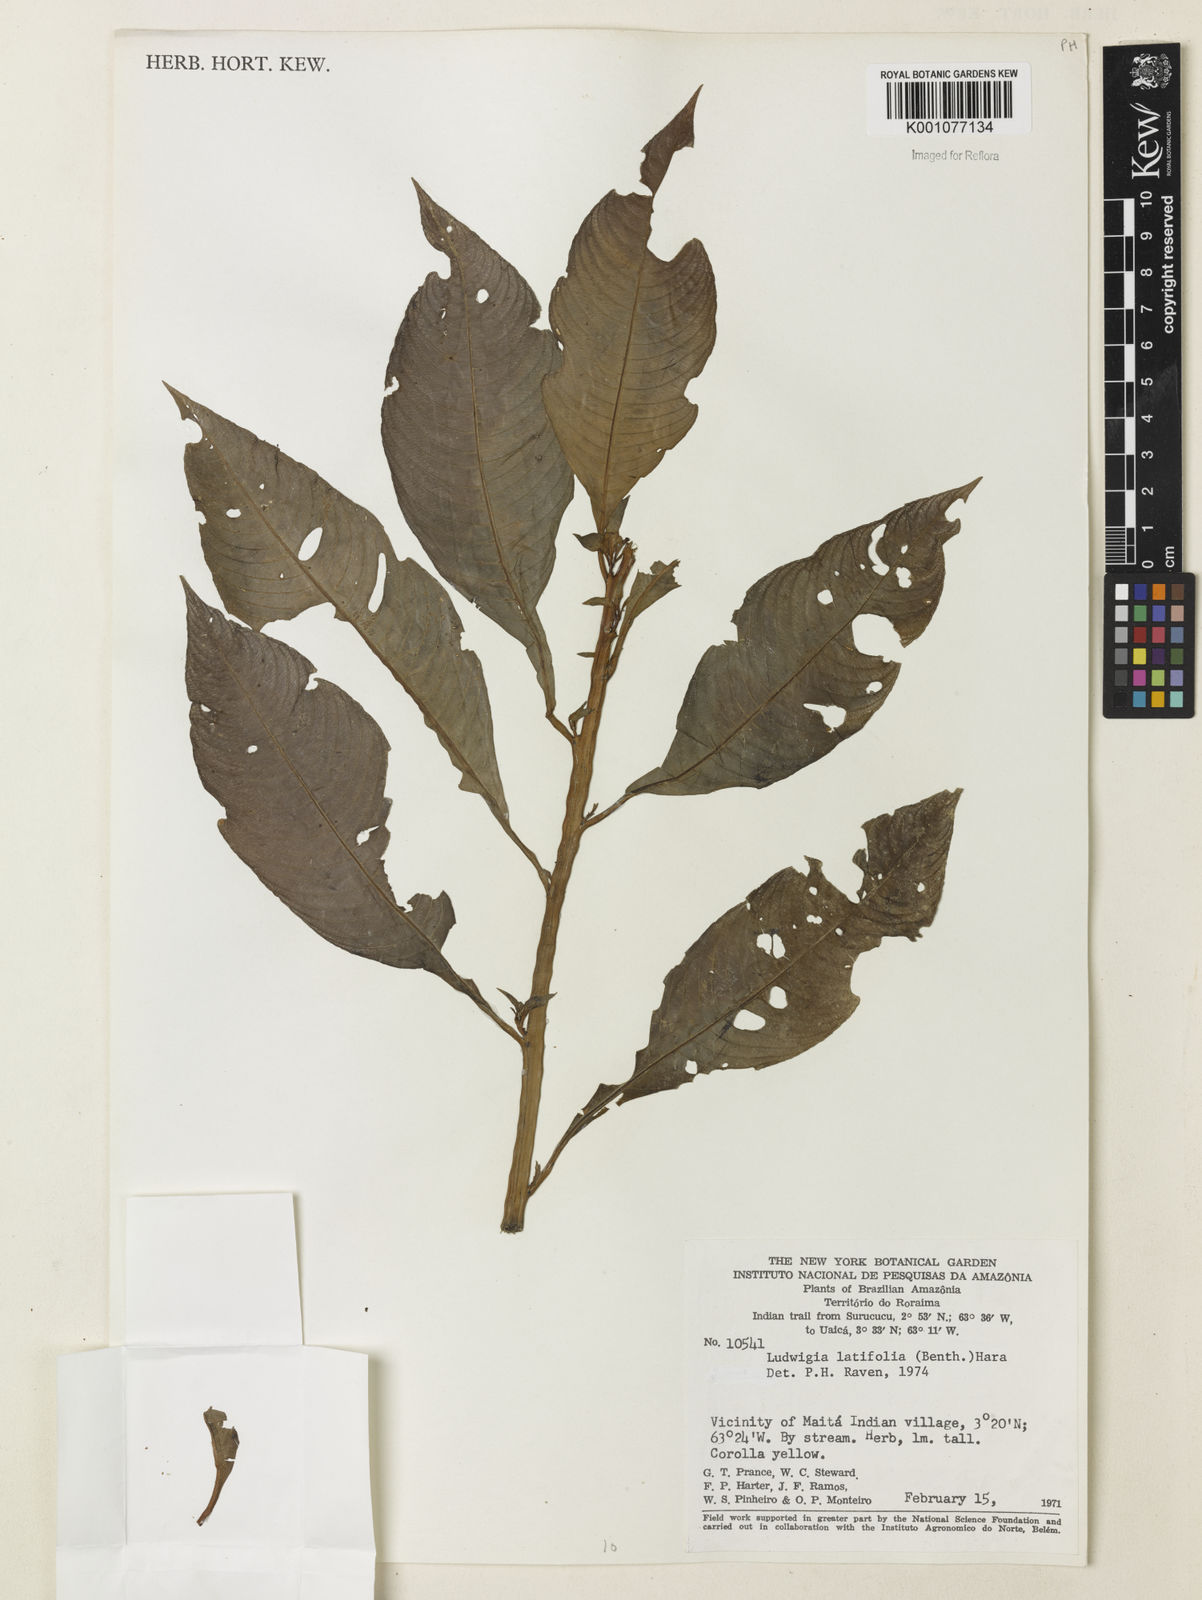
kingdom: Plantae
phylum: Tracheophyta
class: Magnoliopsida
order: Myrtales
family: Onagraceae
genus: Ludwigia
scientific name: Ludwigia latifolia
